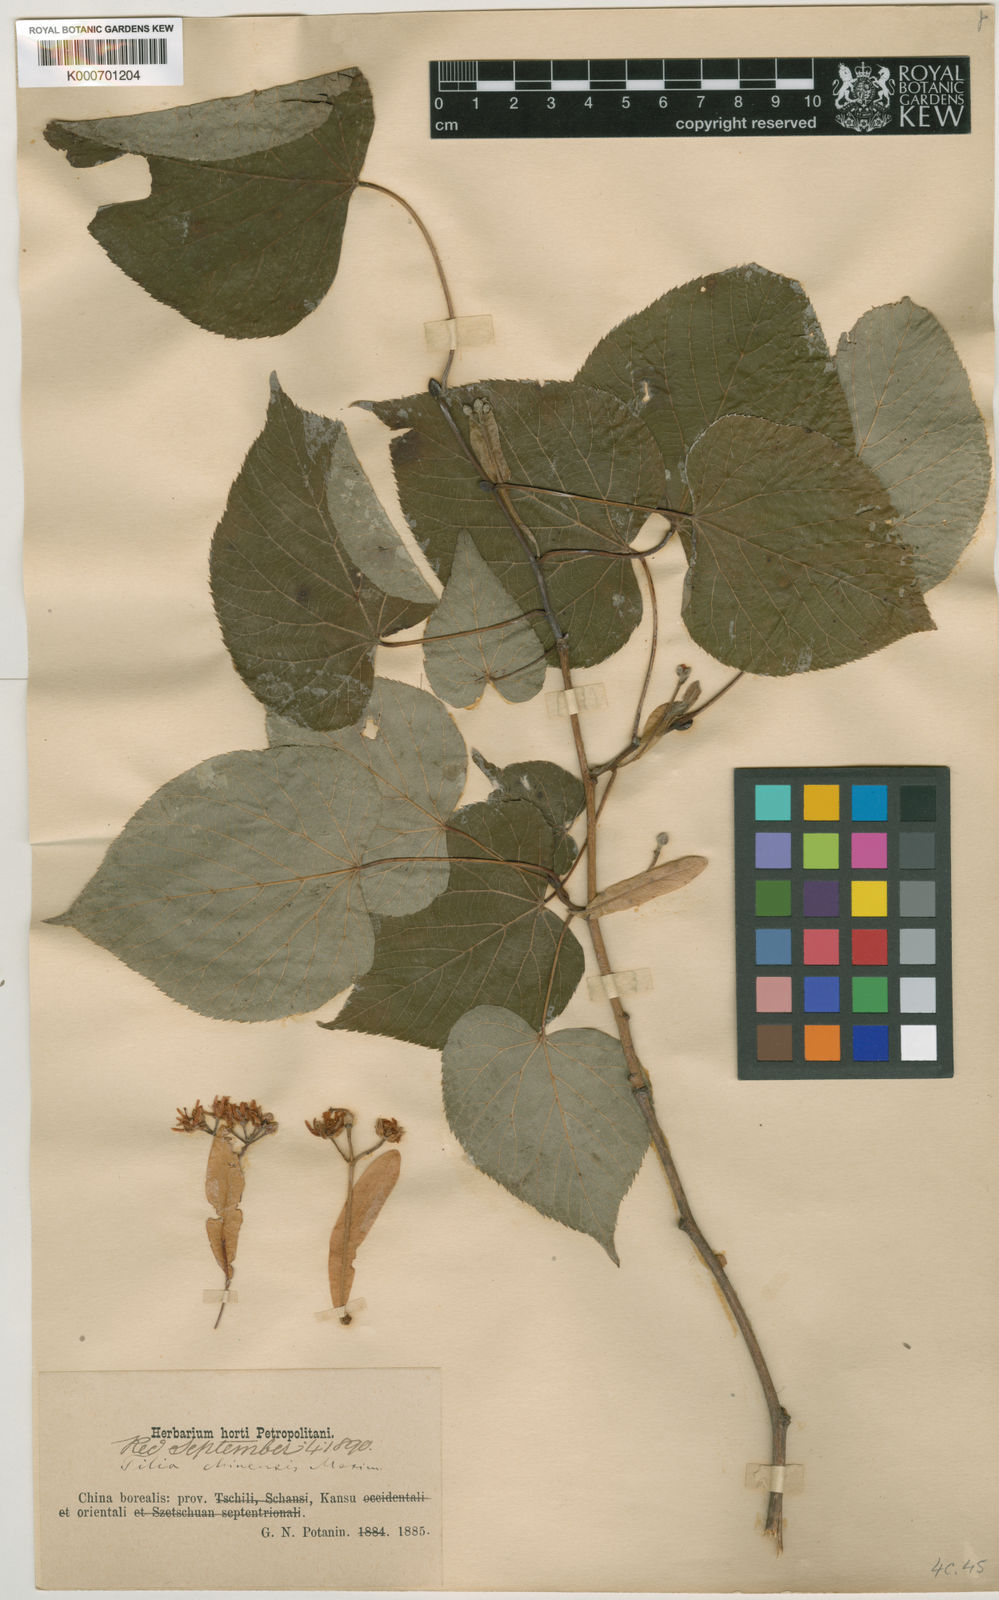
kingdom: Plantae
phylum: Tracheophyta
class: Magnoliopsida
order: Malvales
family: Malvaceae
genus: Tilia
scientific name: Tilia chinensis
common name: Chinese linden
